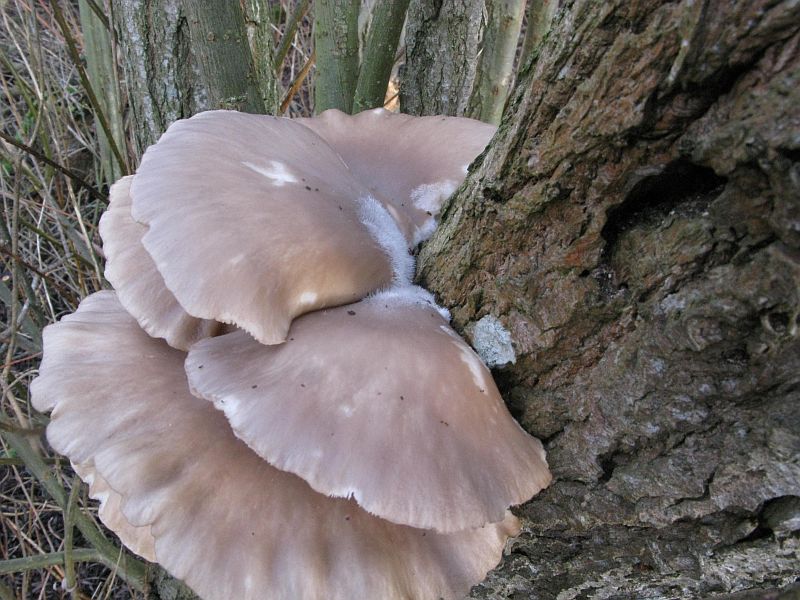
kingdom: Fungi
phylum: Basidiomycota
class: Agaricomycetes
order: Agaricales
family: Pleurotaceae
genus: Pleurotus
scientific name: Pleurotus ostreatus
